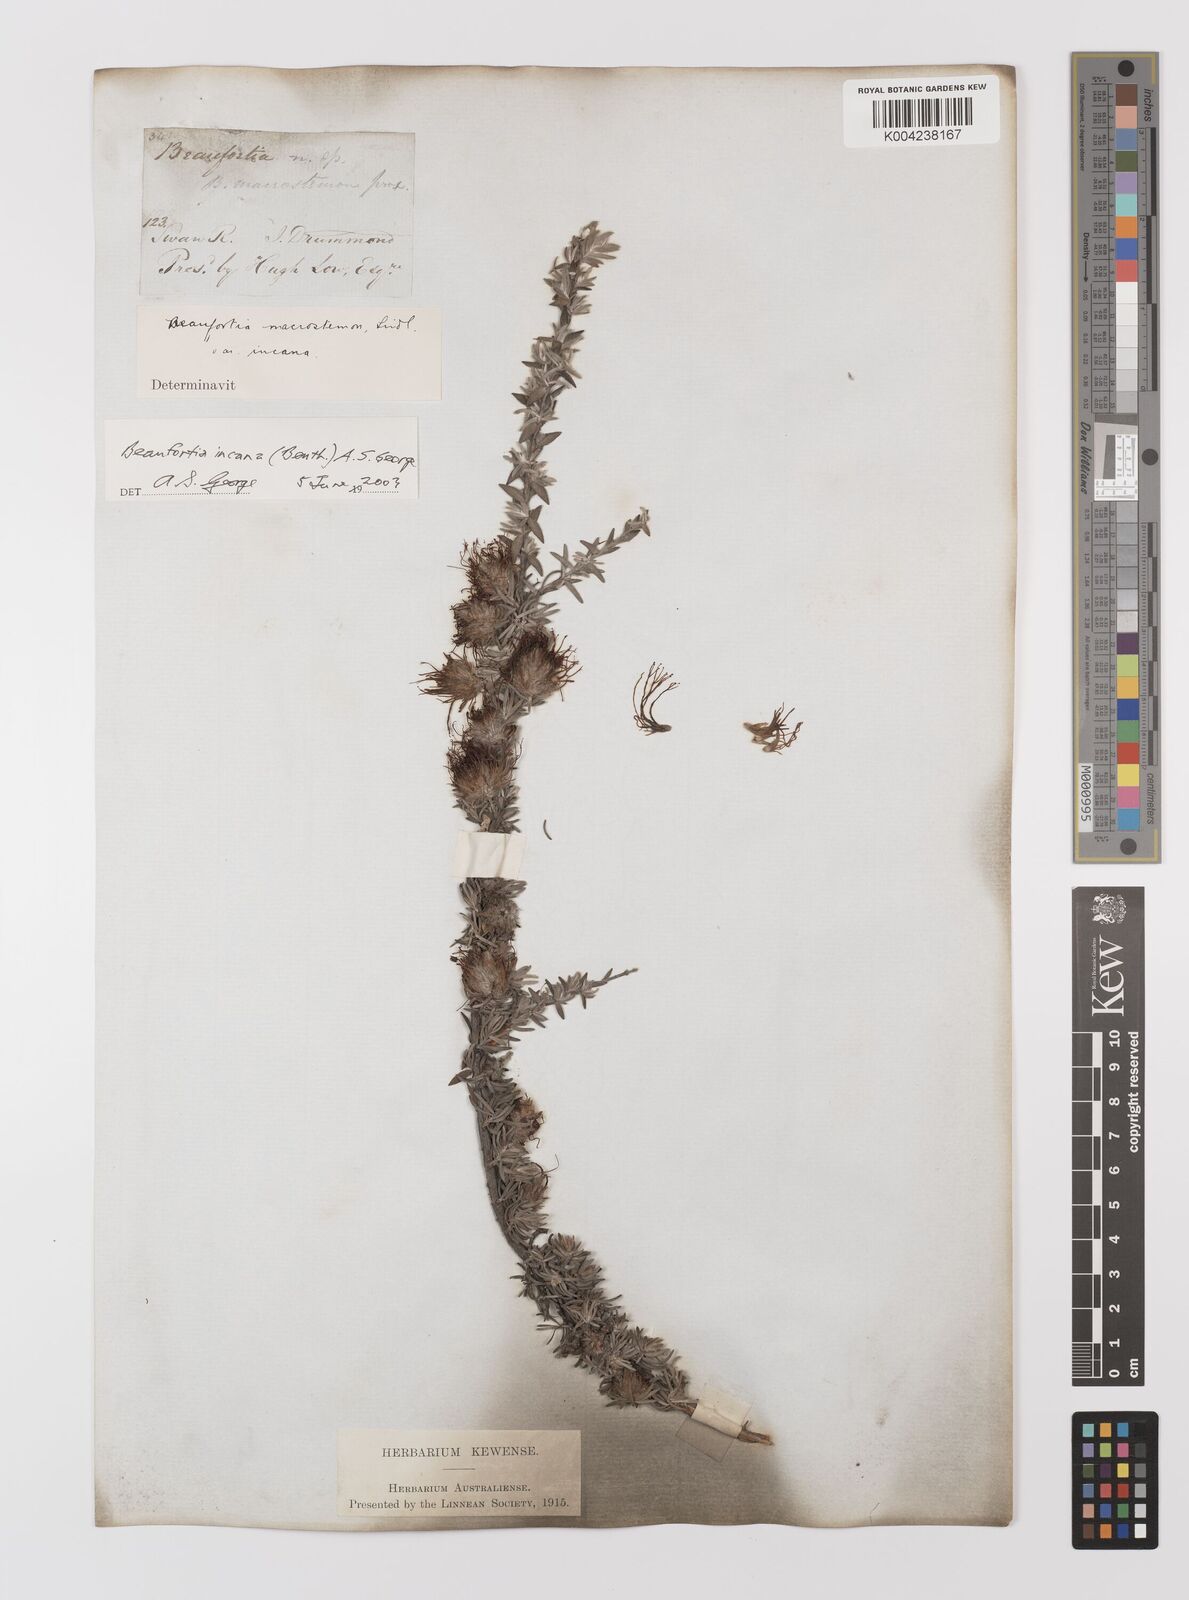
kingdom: Plantae
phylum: Tracheophyta
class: Magnoliopsida
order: Myrtales
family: Myrtaceae
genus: Melaleuca
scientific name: Melaleuca cinerea
